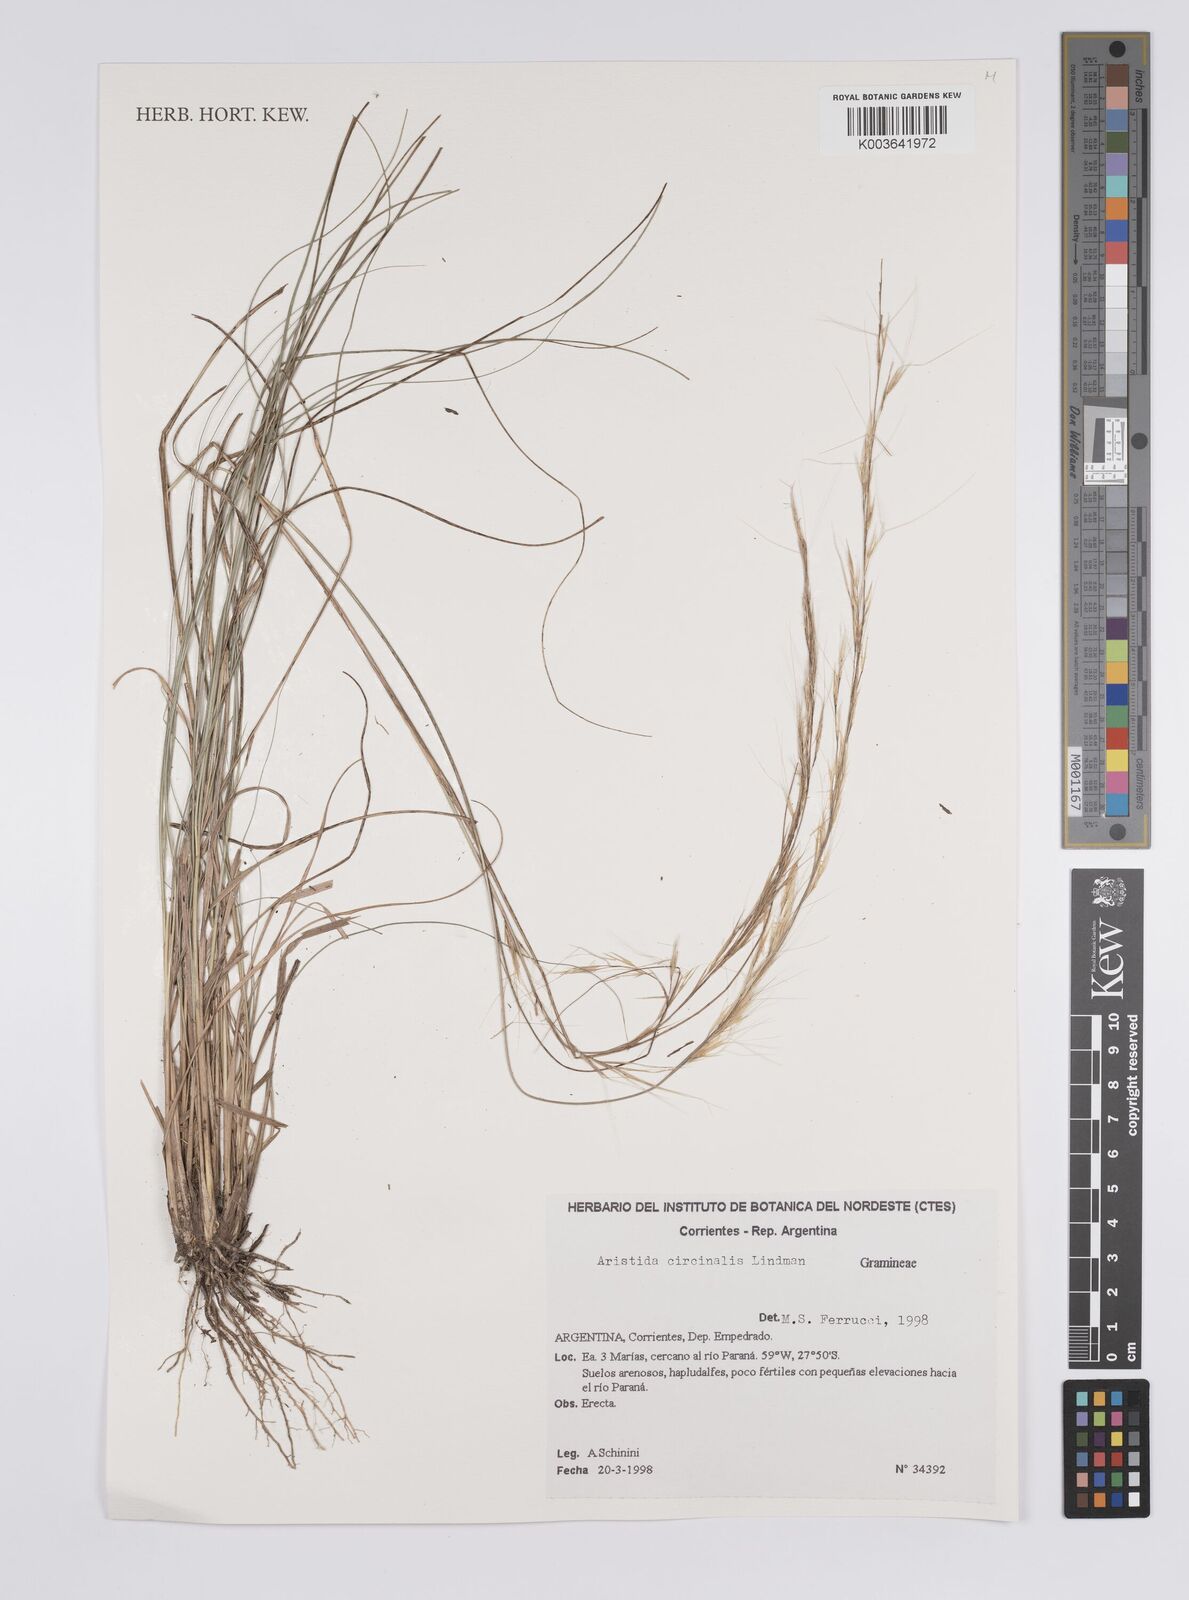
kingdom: Plantae
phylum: Tracheophyta
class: Liliopsida
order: Poales
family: Poaceae
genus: Aristida
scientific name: Aristida circinalis
